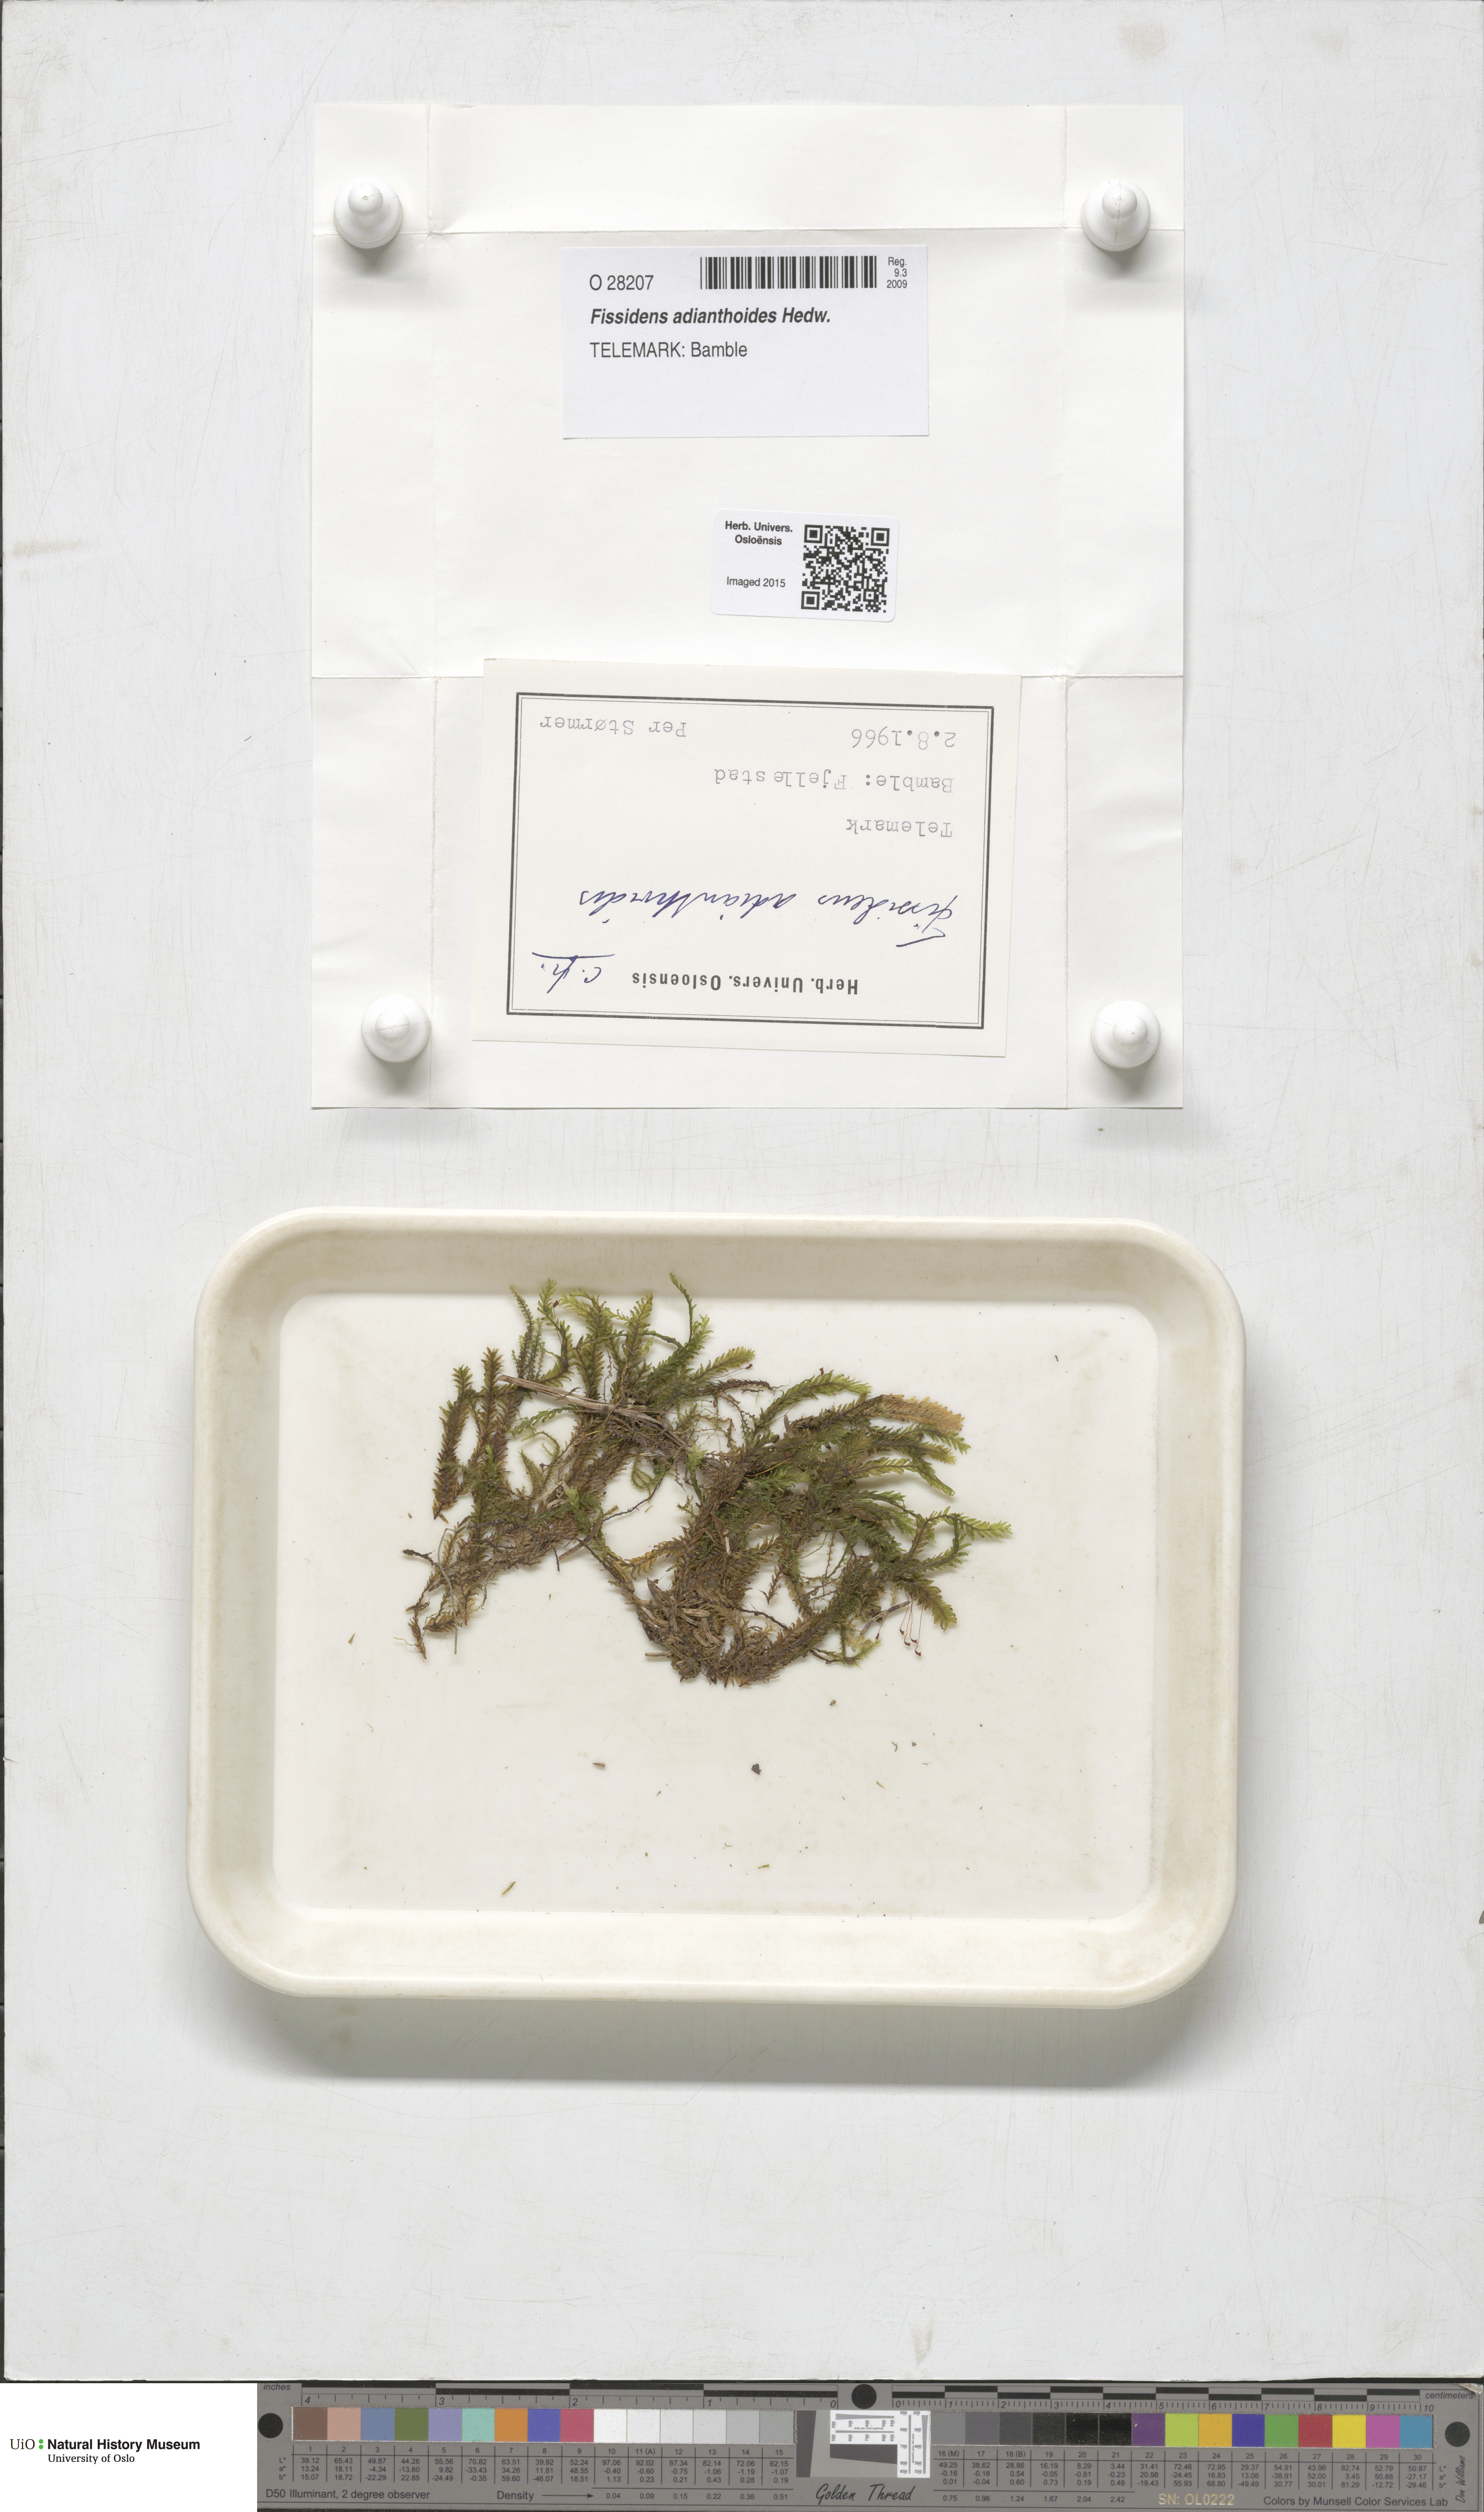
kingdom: Plantae
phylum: Bryophyta
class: Bryopsida
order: Dicranales
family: Fissidentaceae
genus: Fissidens
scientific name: Fissidens adianthoides
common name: Maidenhair pocket moss
